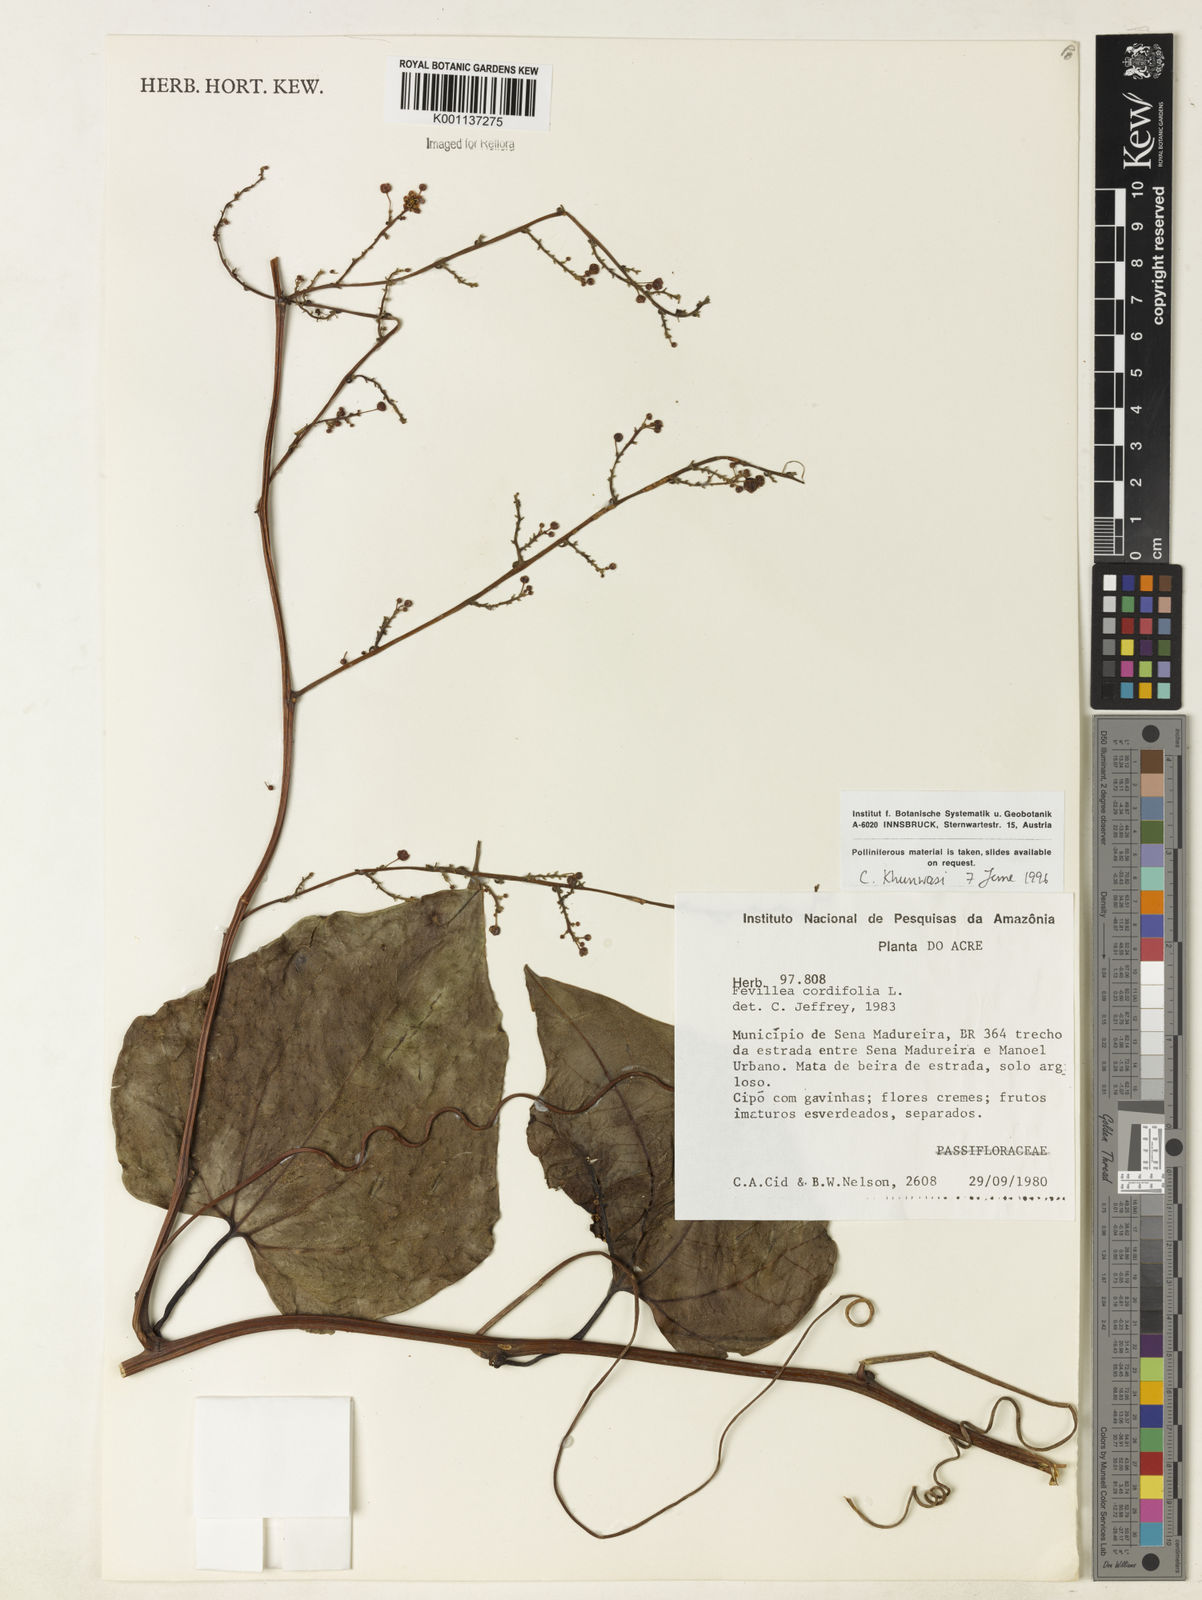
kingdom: Plantae
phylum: Tracheophyta
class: Magnoliopsida
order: Cucurbitales
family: Cucurbitaceae
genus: Fevillea
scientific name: Fevillea cordifolia
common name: Antidote-vine
